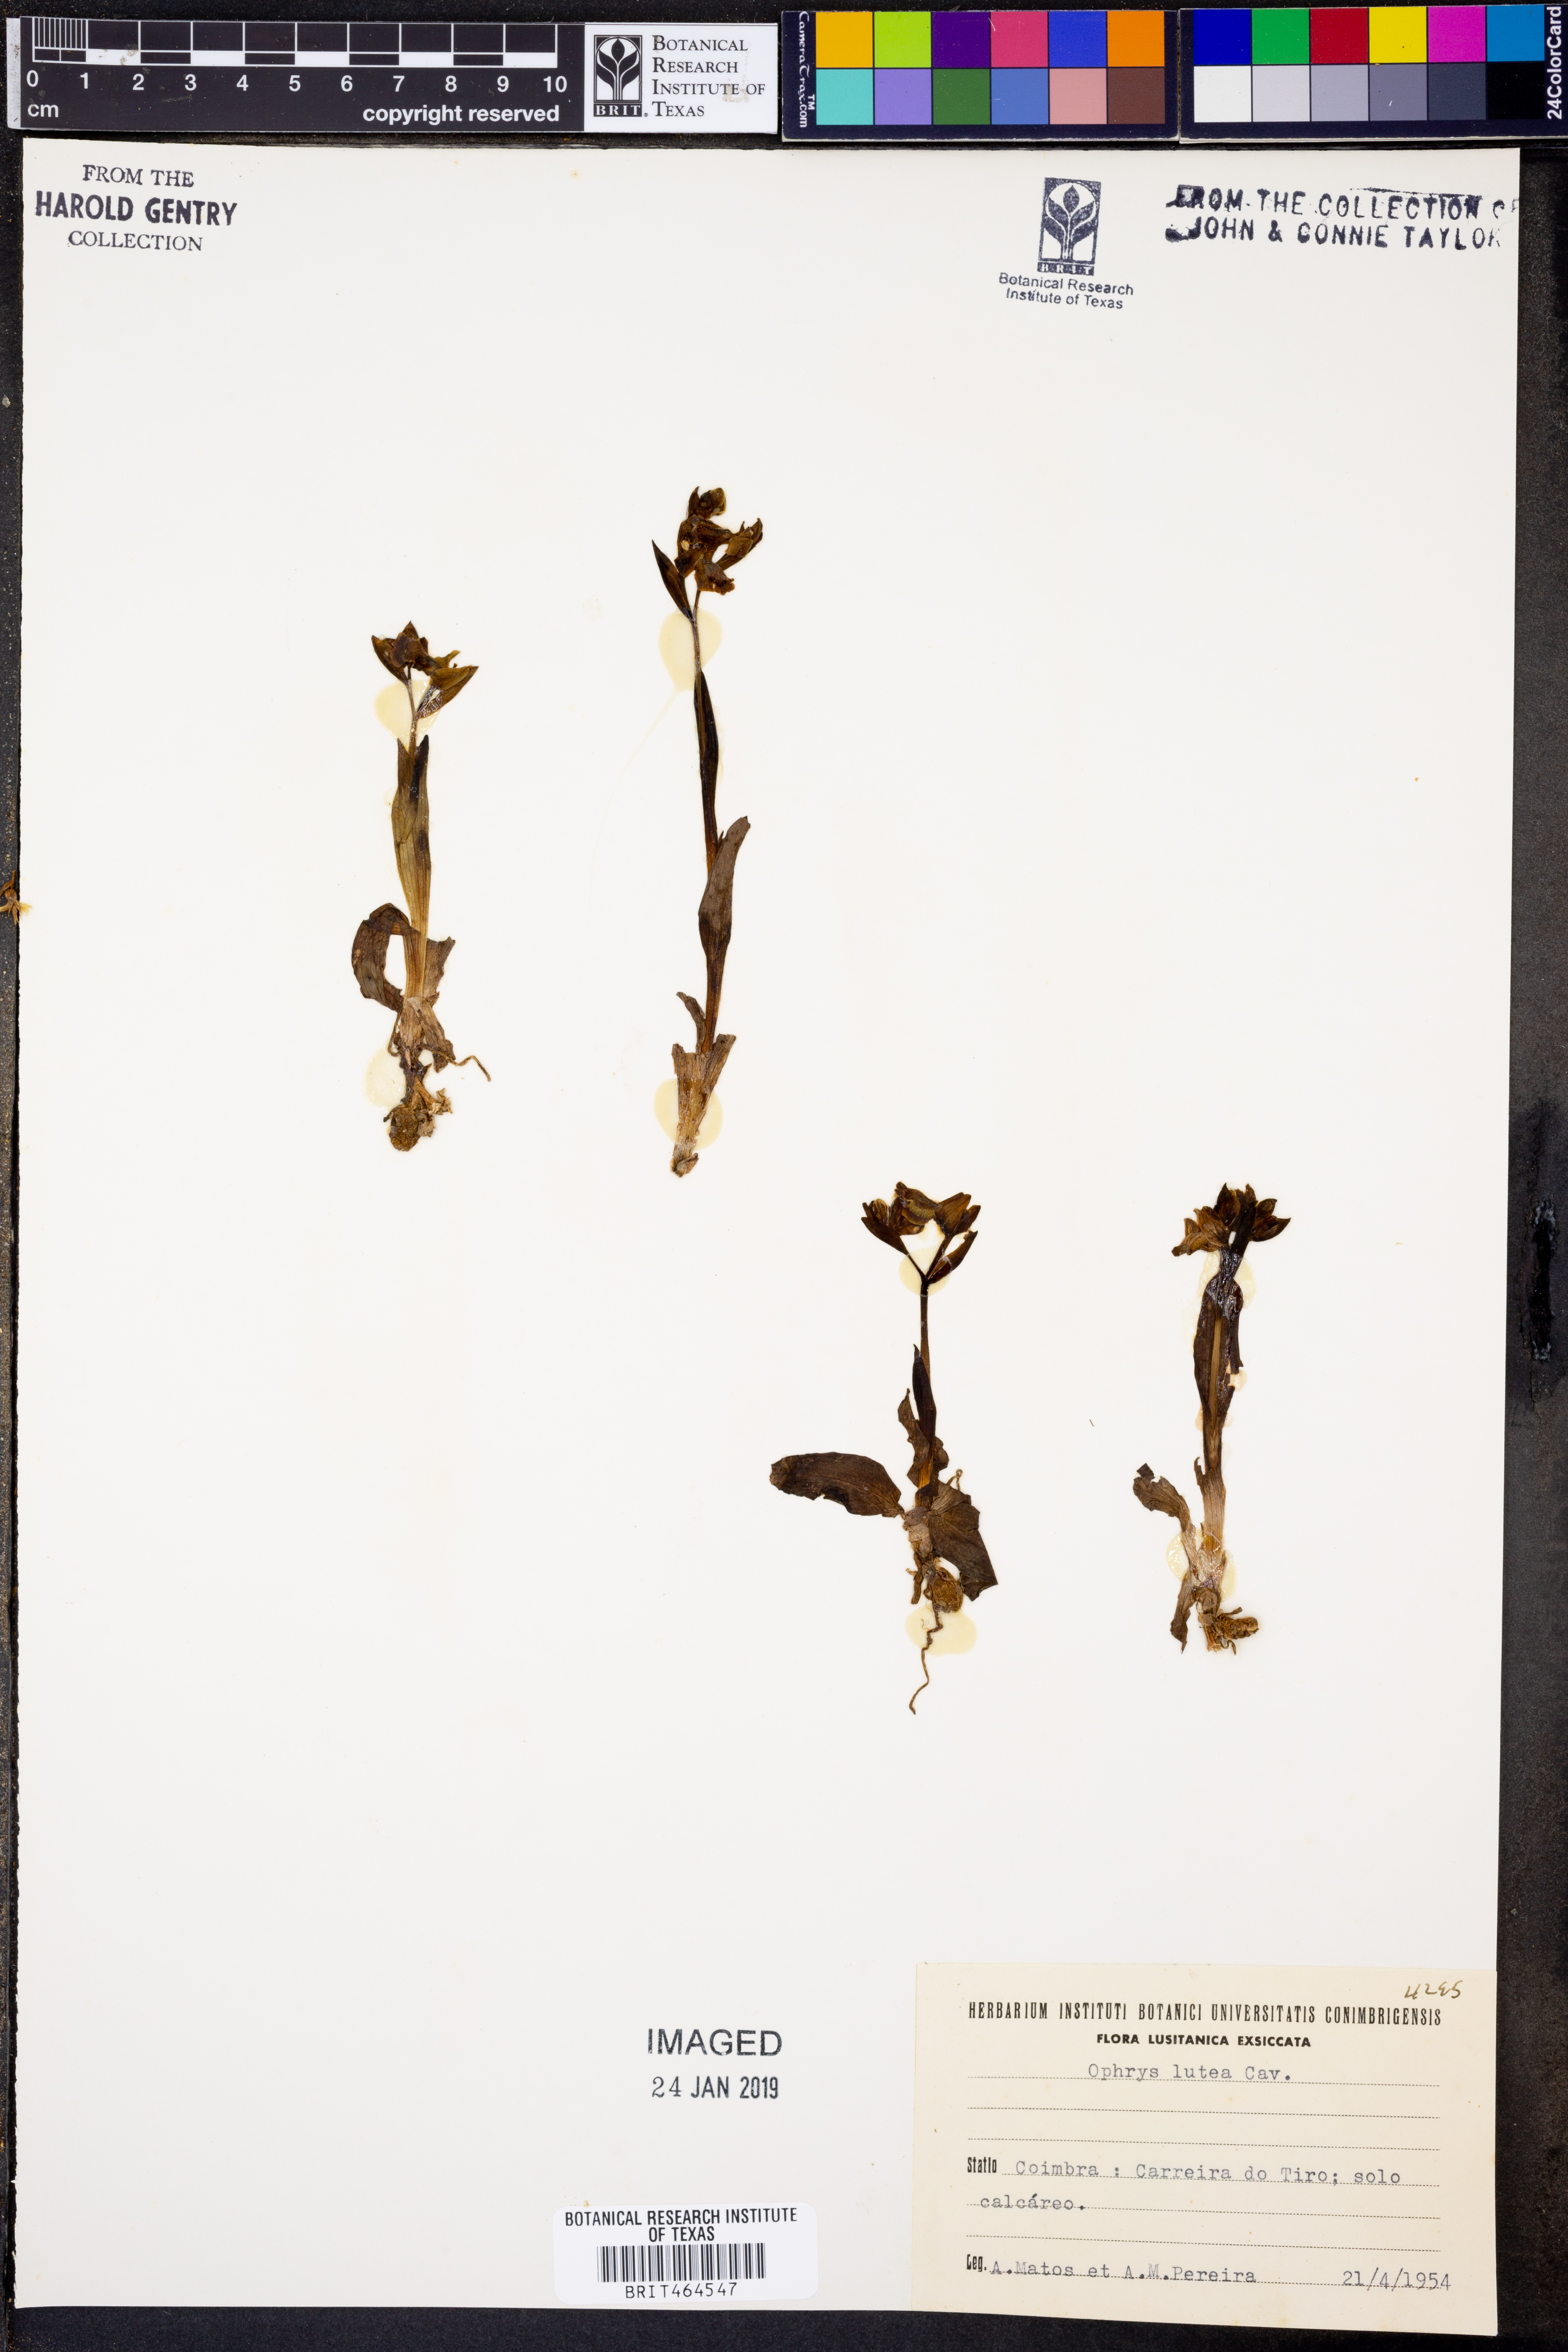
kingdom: Plantae
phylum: Tracheophyta
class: Liliopsida
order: Asparagales
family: Orchidaceae
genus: Ophrys
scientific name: Ophrys lutea
